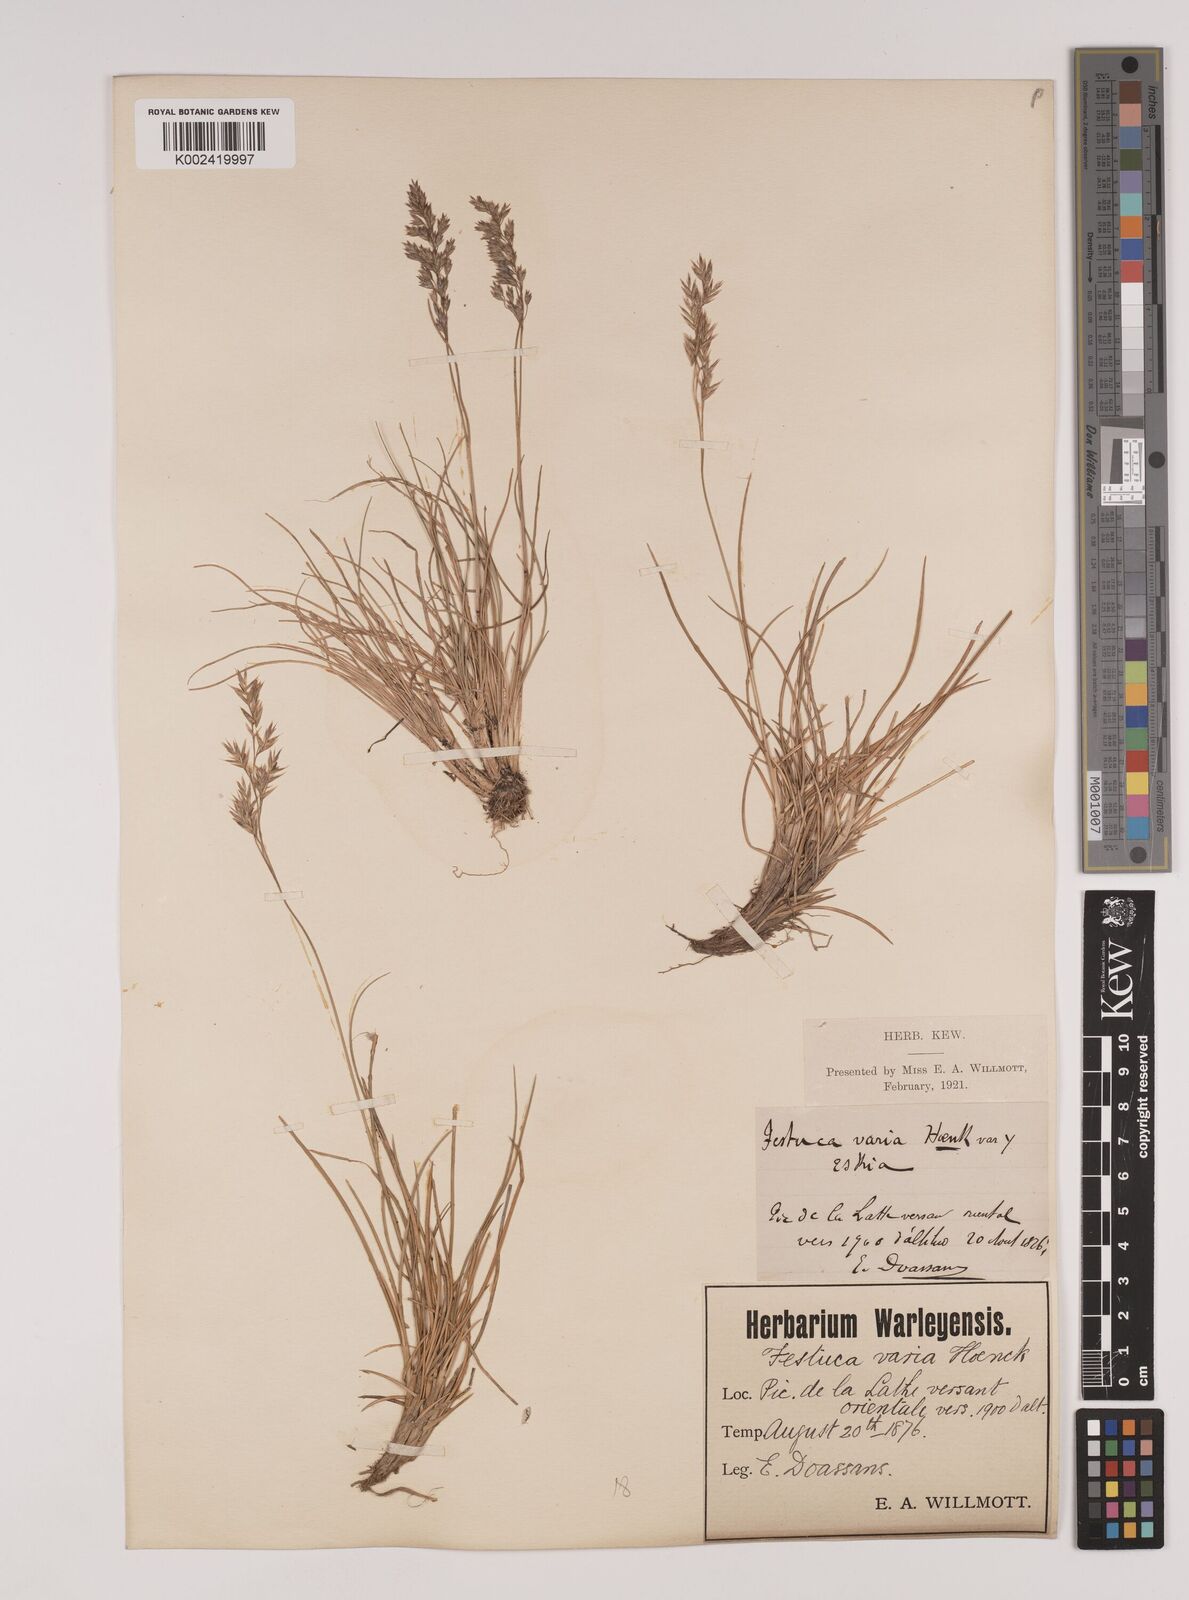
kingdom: Plantae
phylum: Tracheophyta
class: Liliopsida
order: Poales
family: Poaceae
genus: Festuca
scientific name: Festuca eskia
